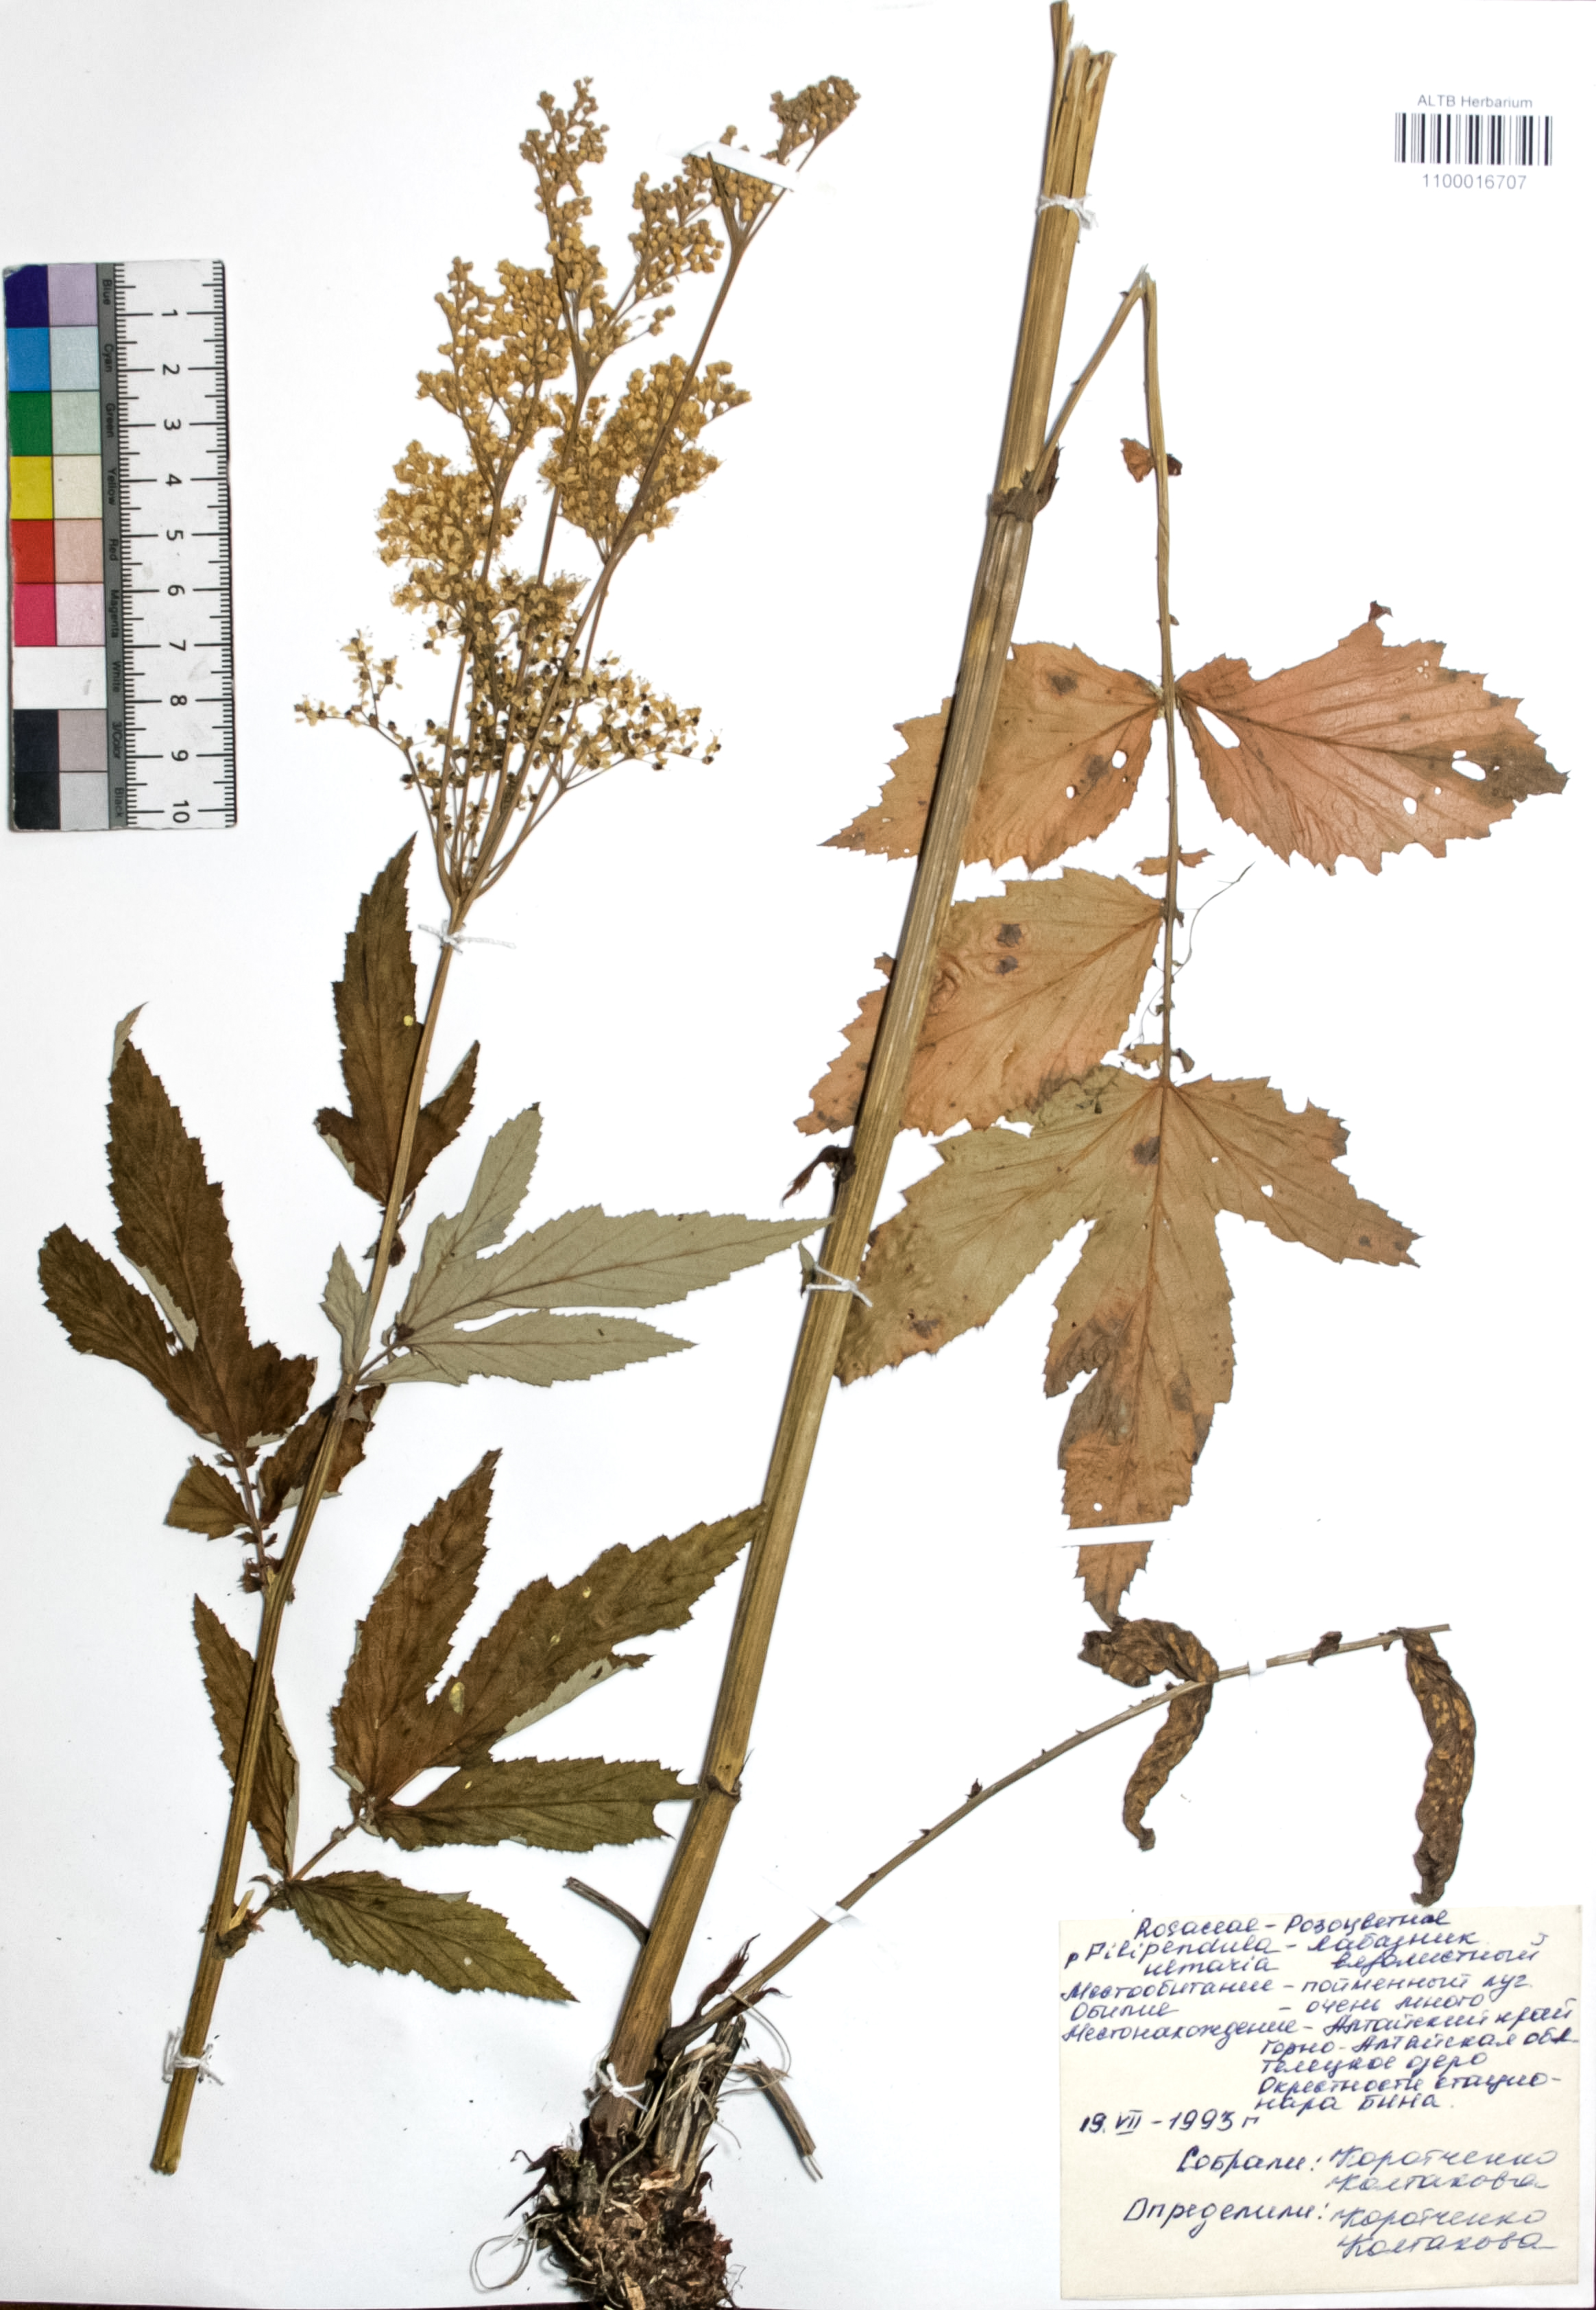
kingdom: Plantae
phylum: Tracheophyta
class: Magnoliopsida
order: Rosales
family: Rosaceae
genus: Filipendula
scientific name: Filipendula ulmaria
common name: Meadowsweet
